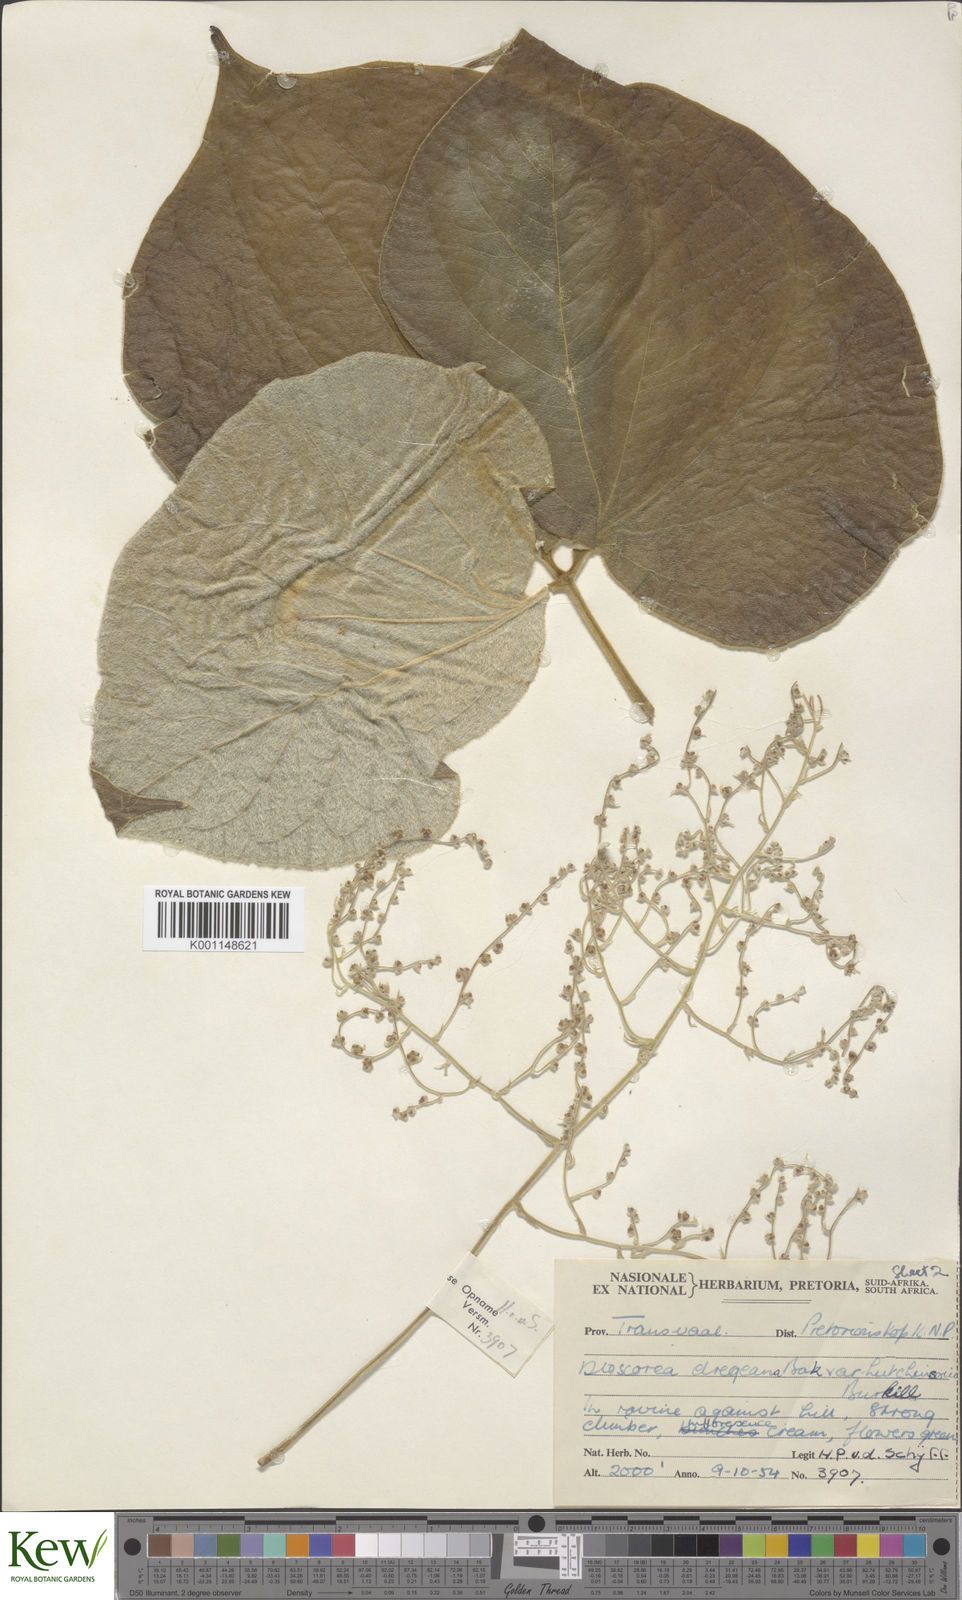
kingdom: Plantae
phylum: Tracheophyta
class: Liliopsida
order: Dioscoreales
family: Dioscoreaceae
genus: Dioscorea
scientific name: Dioscorea dregeana
